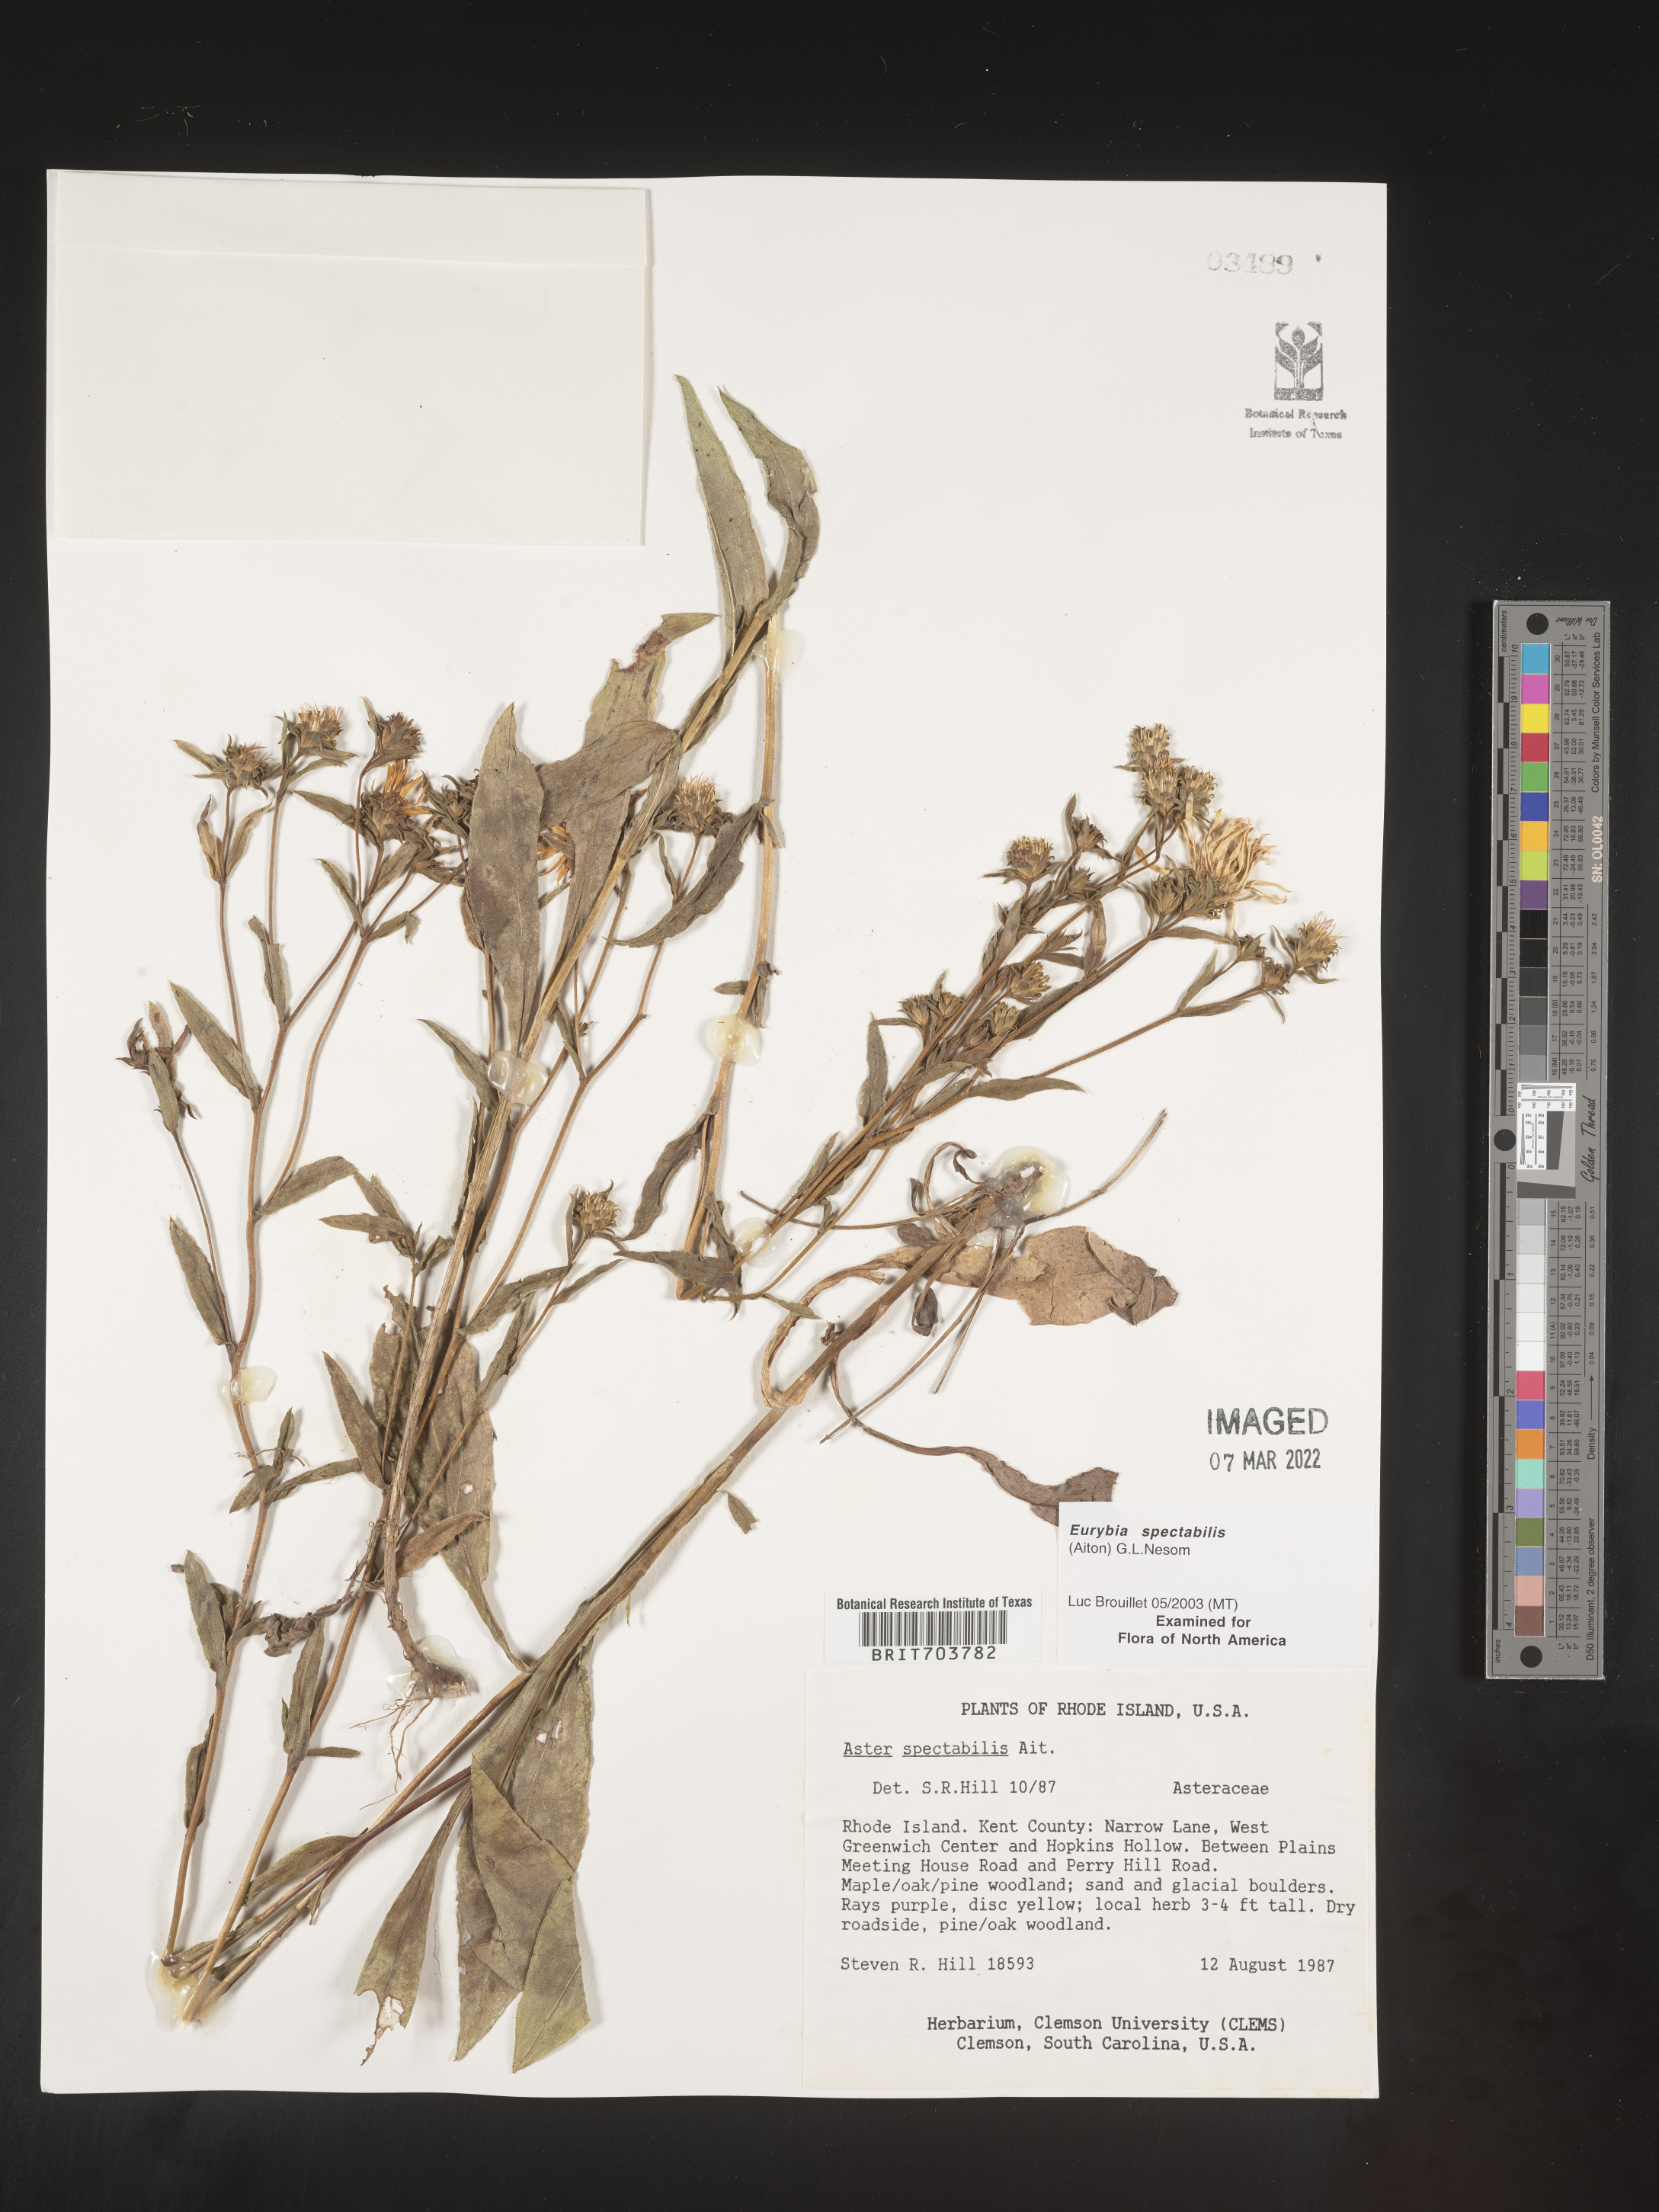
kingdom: Plantae
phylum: Tracheophyta
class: Magnoliopsida
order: Asterales
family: Asteraceae
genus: Eurybia
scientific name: Eurybia spectabilis
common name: Low showy aster
